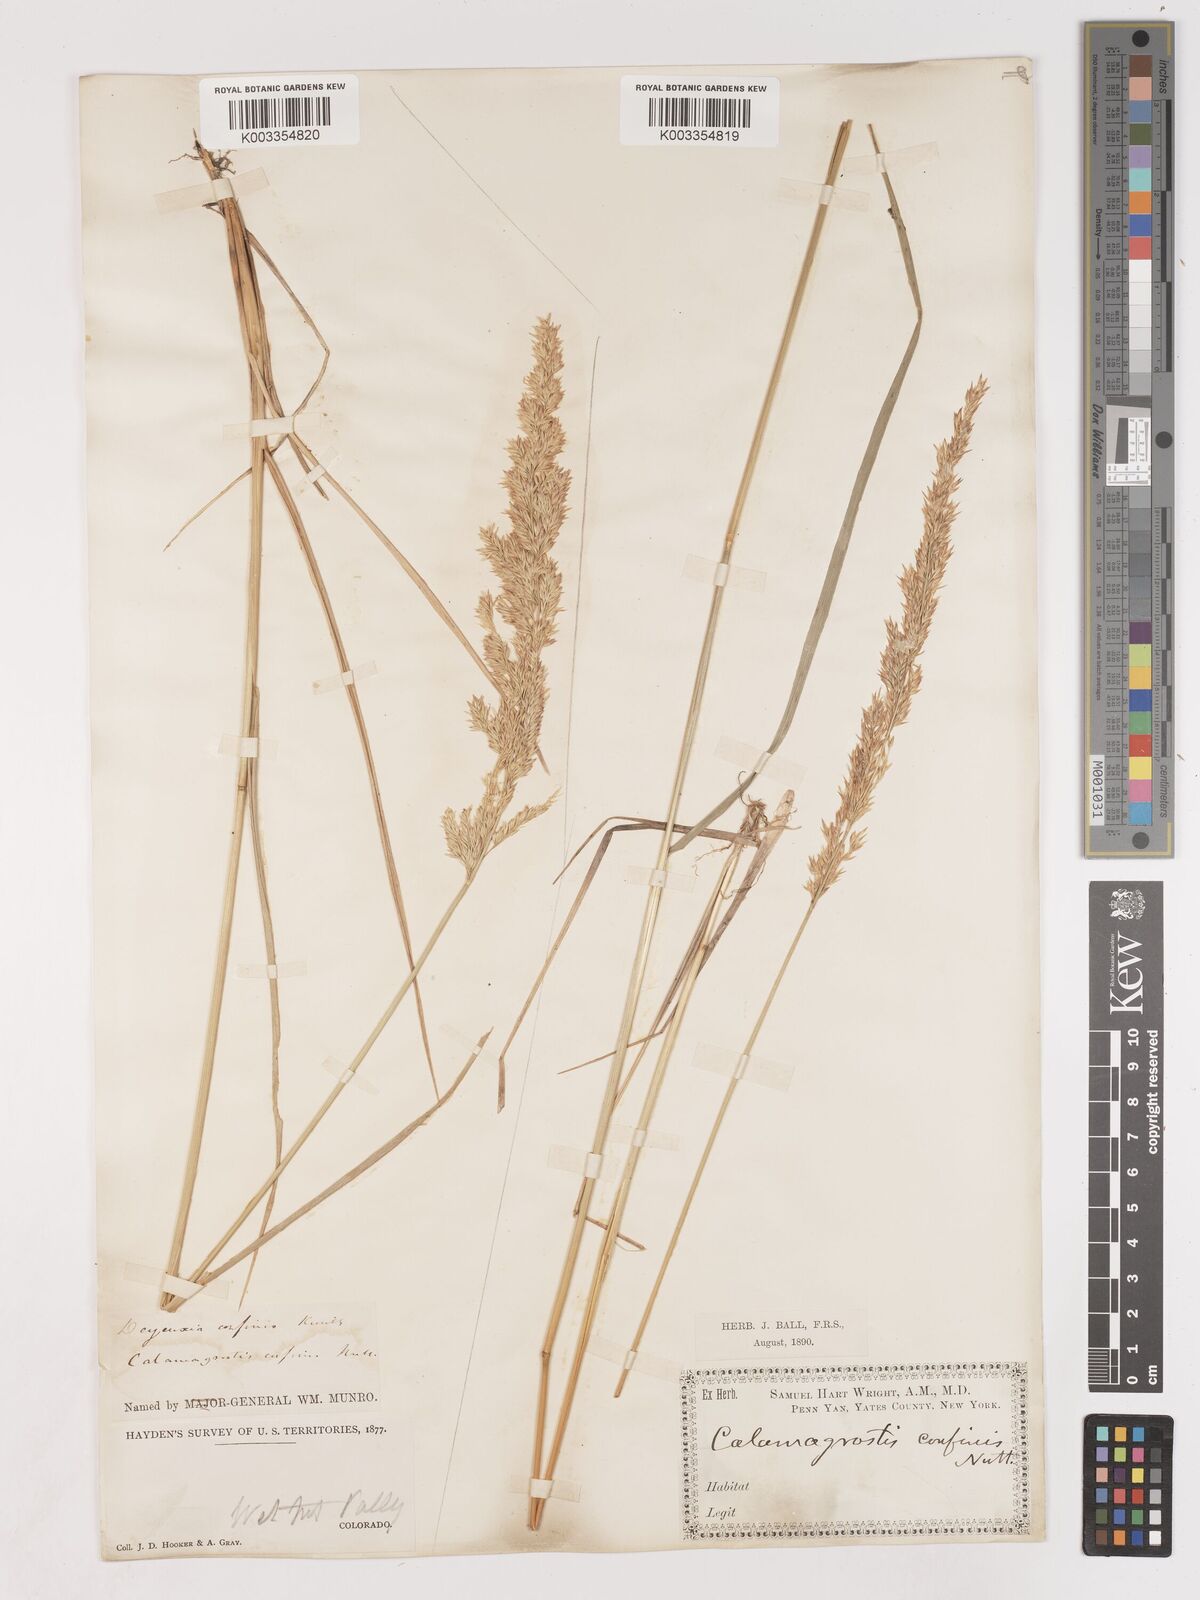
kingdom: Plantae
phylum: Tracheophyta
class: Liliopsida
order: Poales
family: Poaceae
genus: Calamagrostis
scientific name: Calamagrostis
